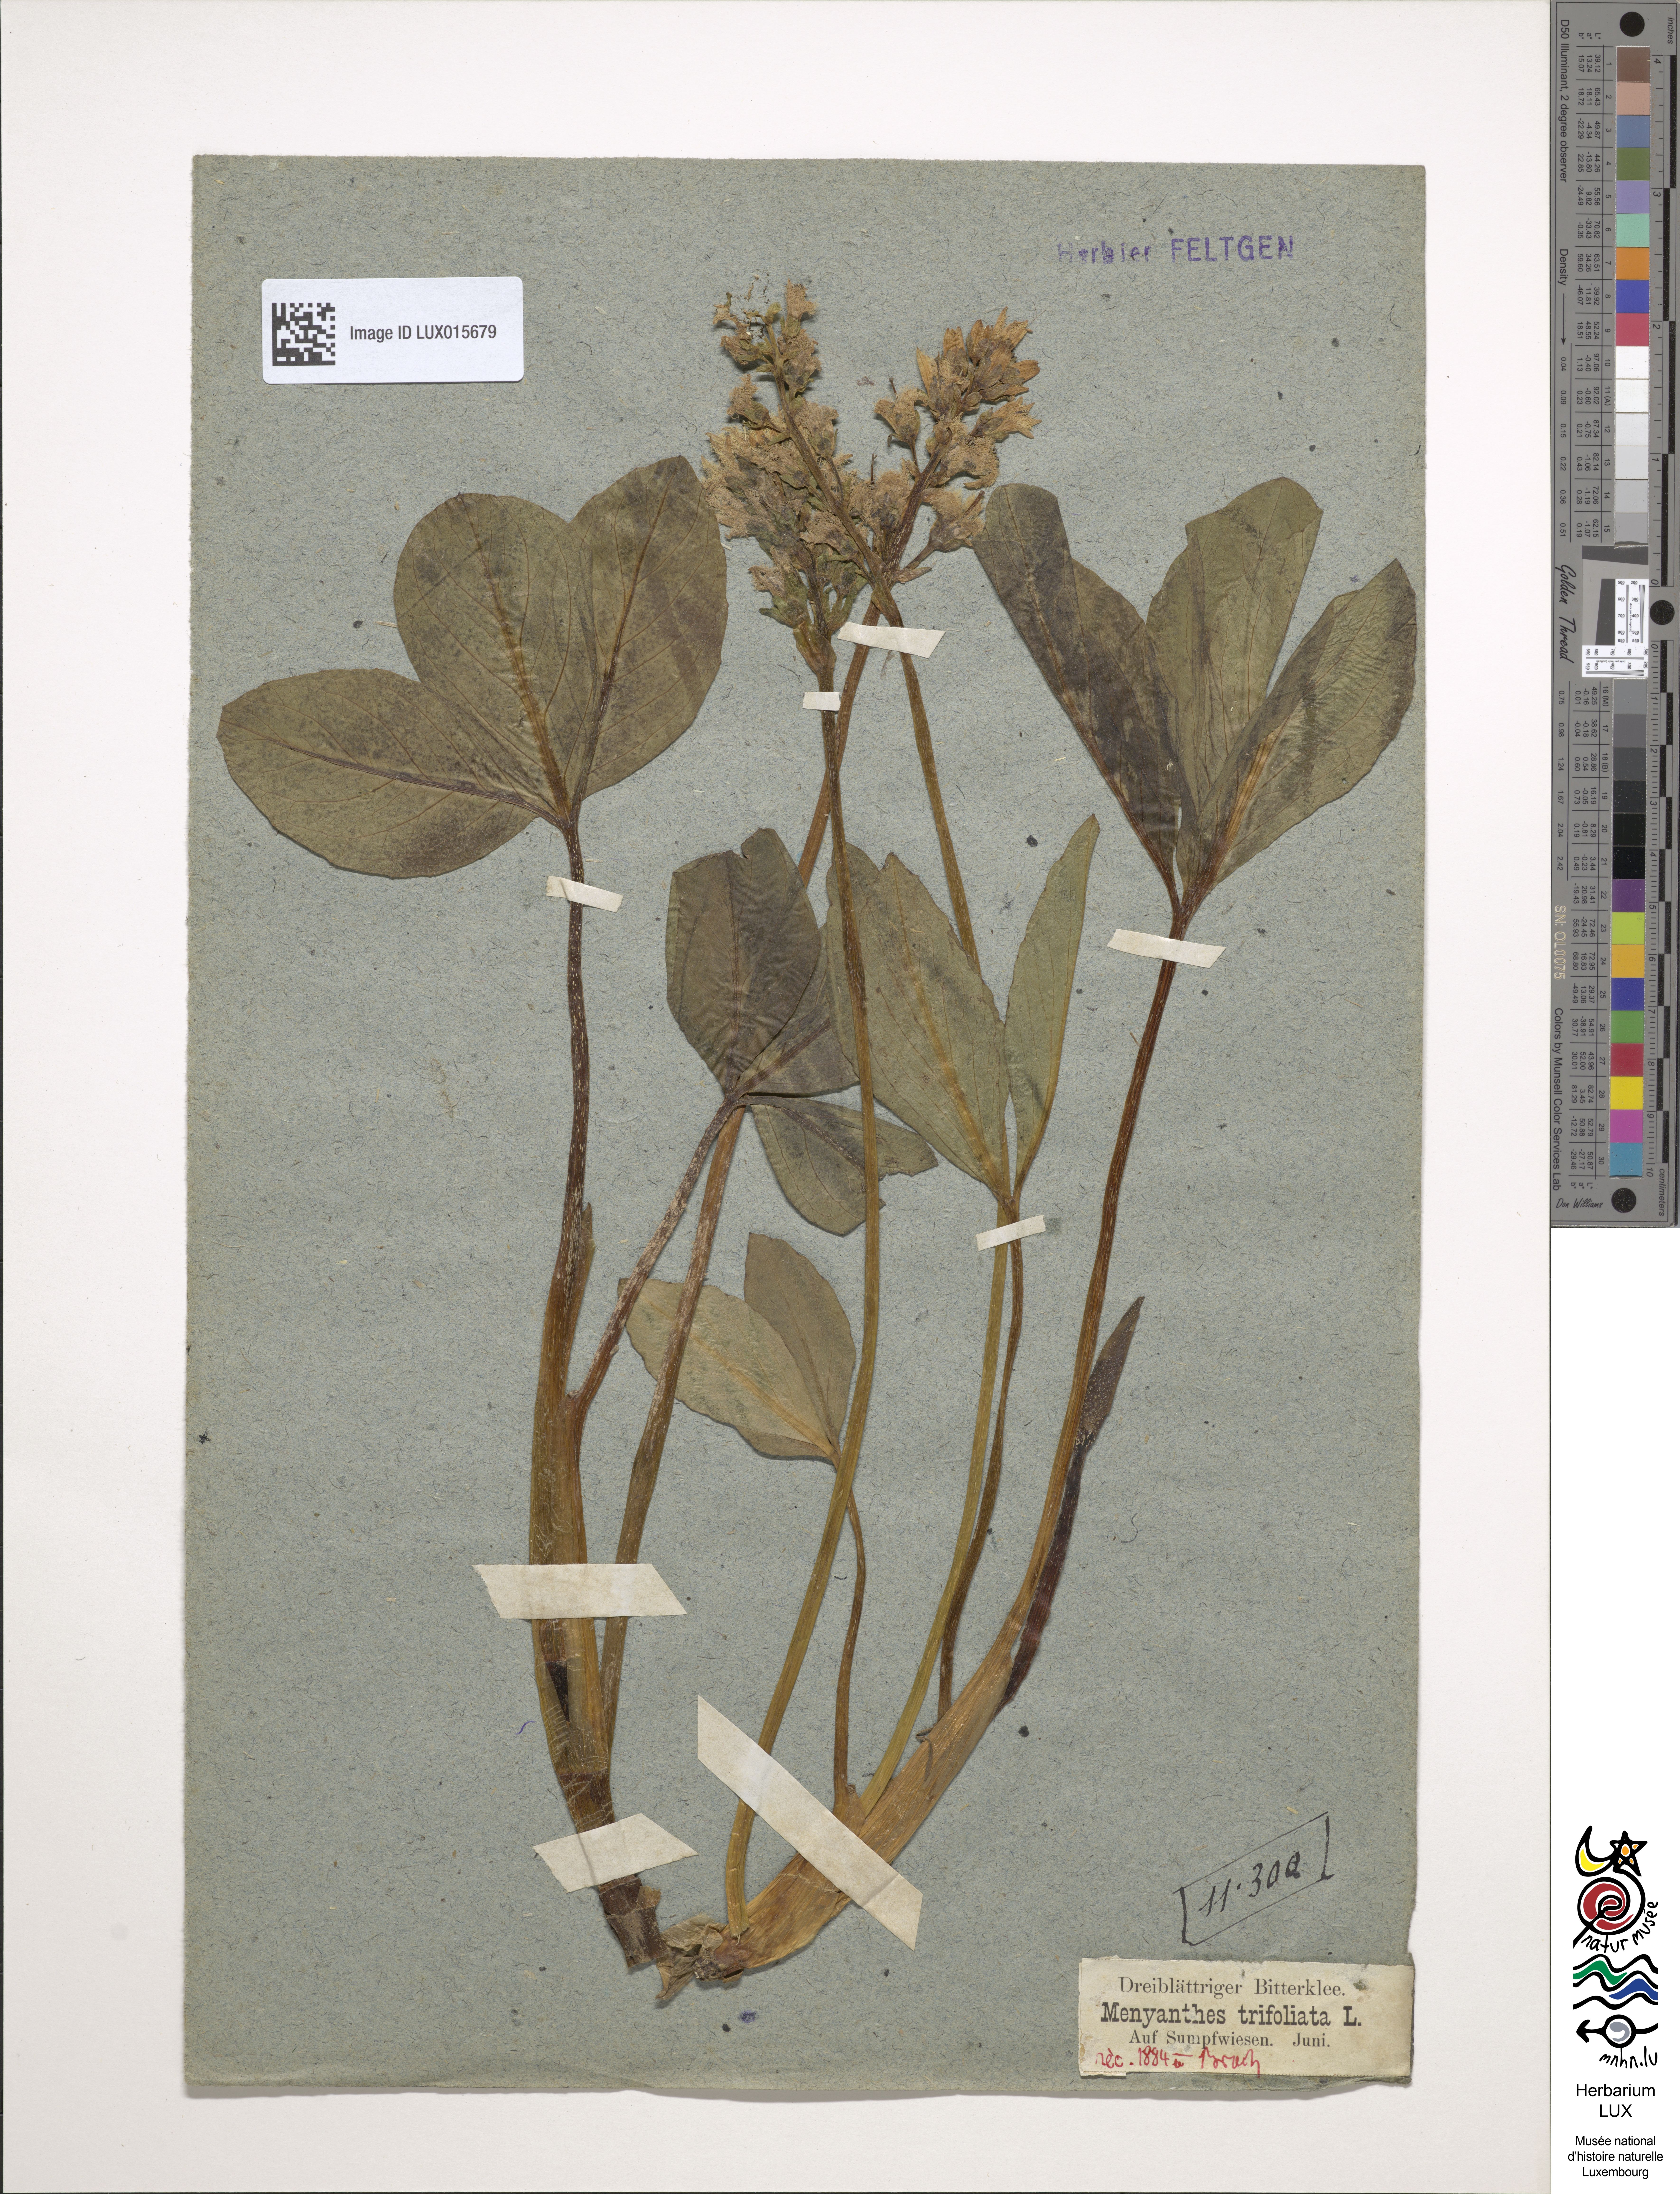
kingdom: Plantae
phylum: Tracheophyta
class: Magnoliopsida
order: Asterales
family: Menyanthaceae
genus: Menyanthes
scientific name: Menyanthes trifoliata
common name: Bogbean
